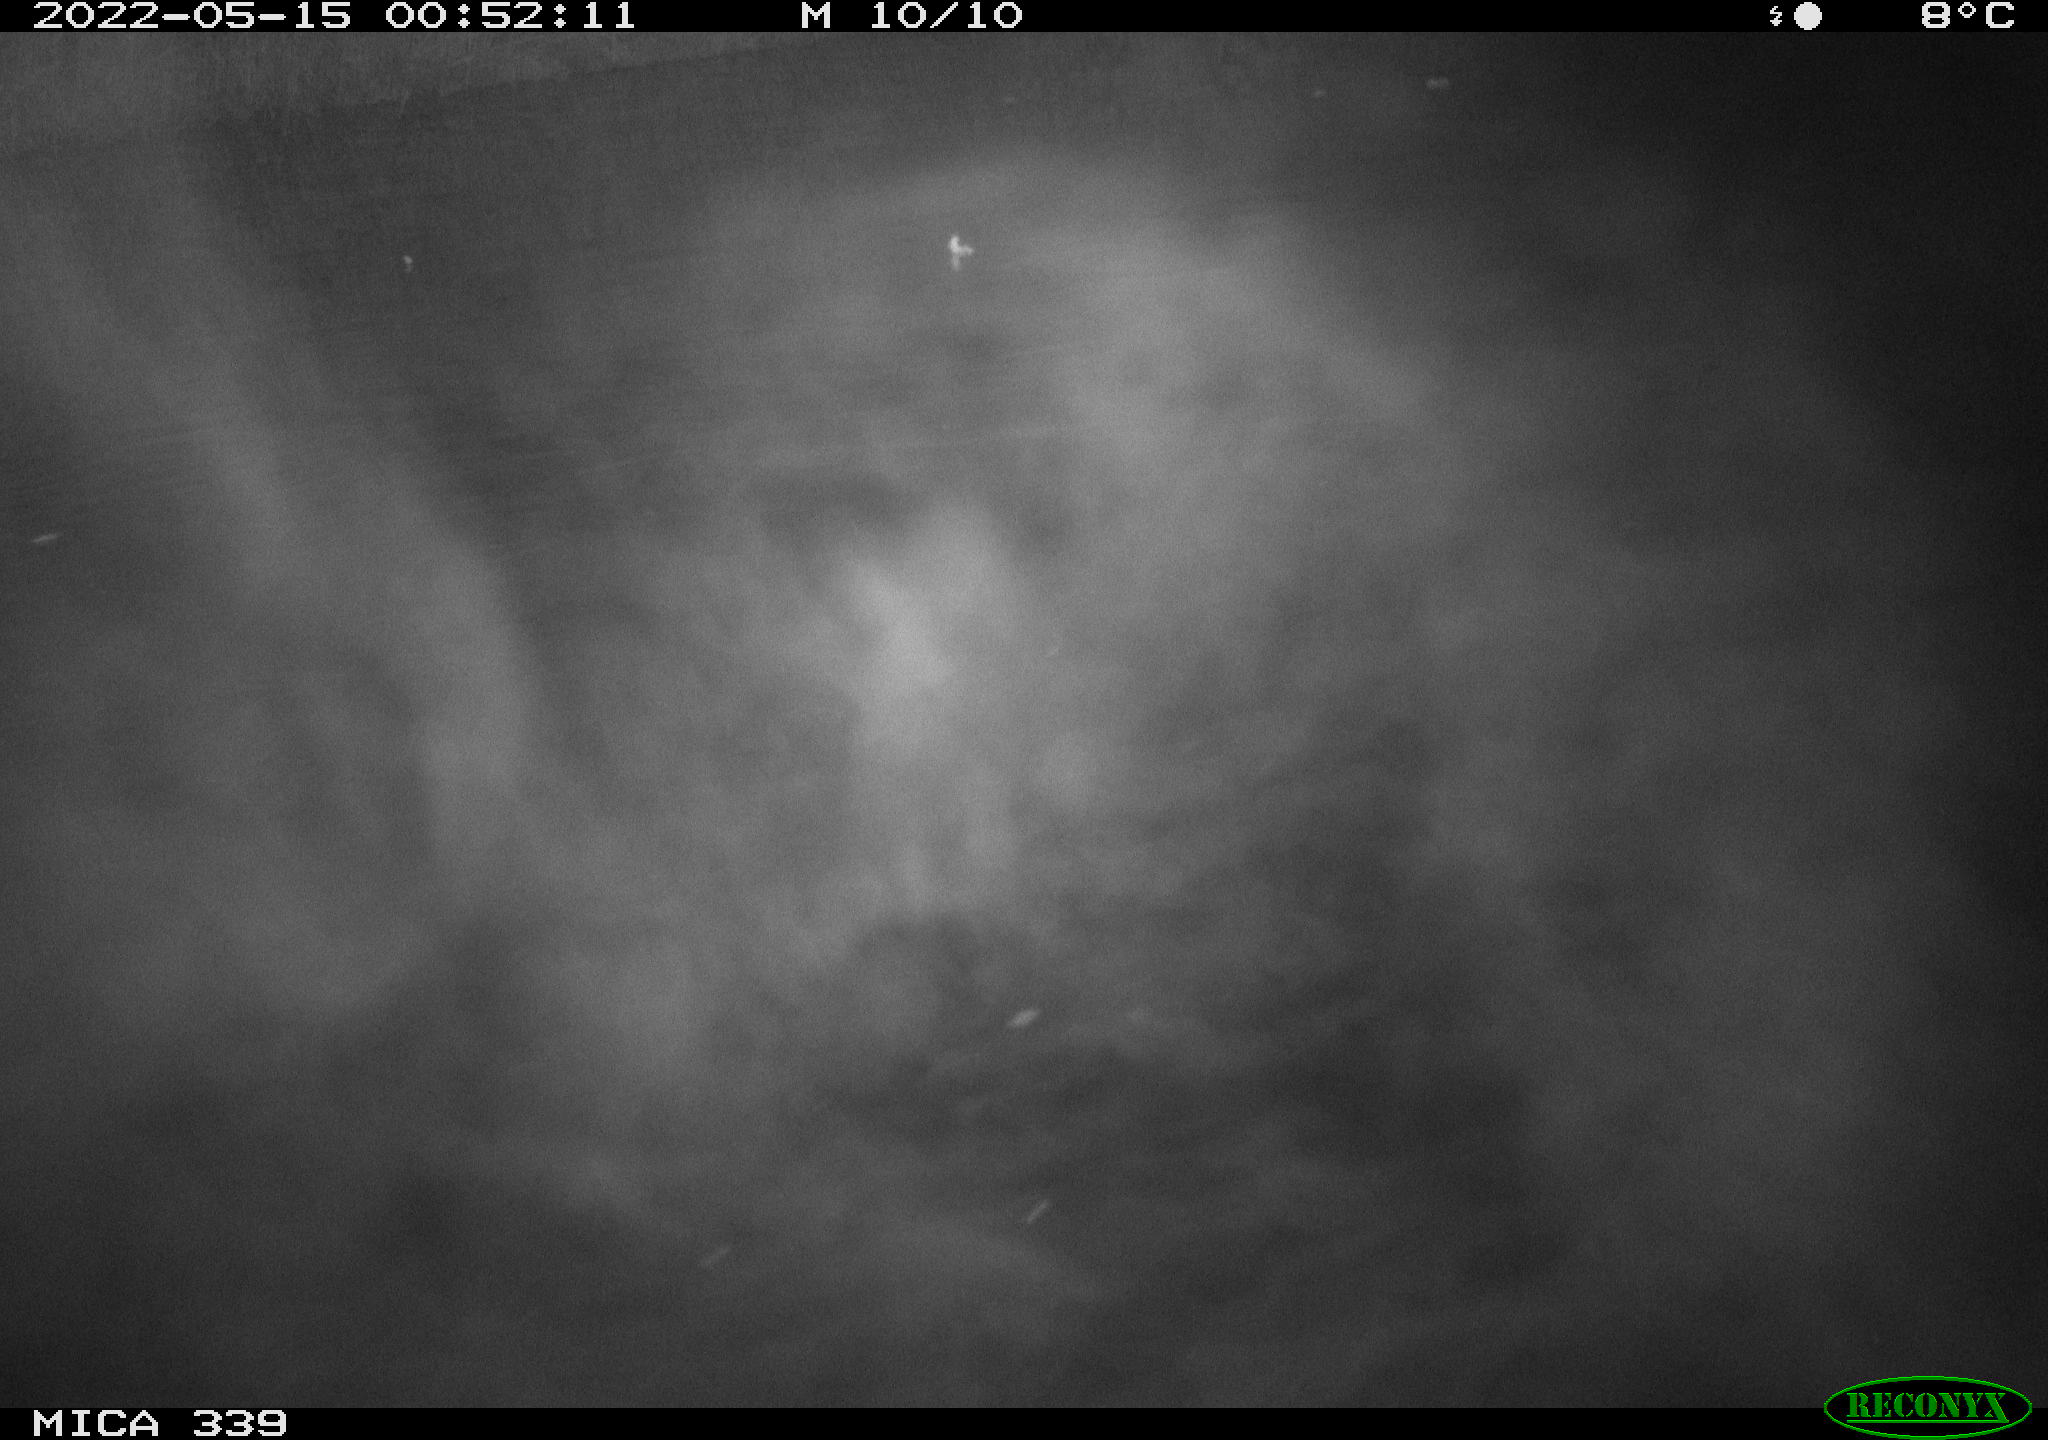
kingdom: Animalia
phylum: Chordata
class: Aves
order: Anseriformes
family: Anatidae
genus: Anas
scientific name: Anas platyrhynchos
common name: Mallard
